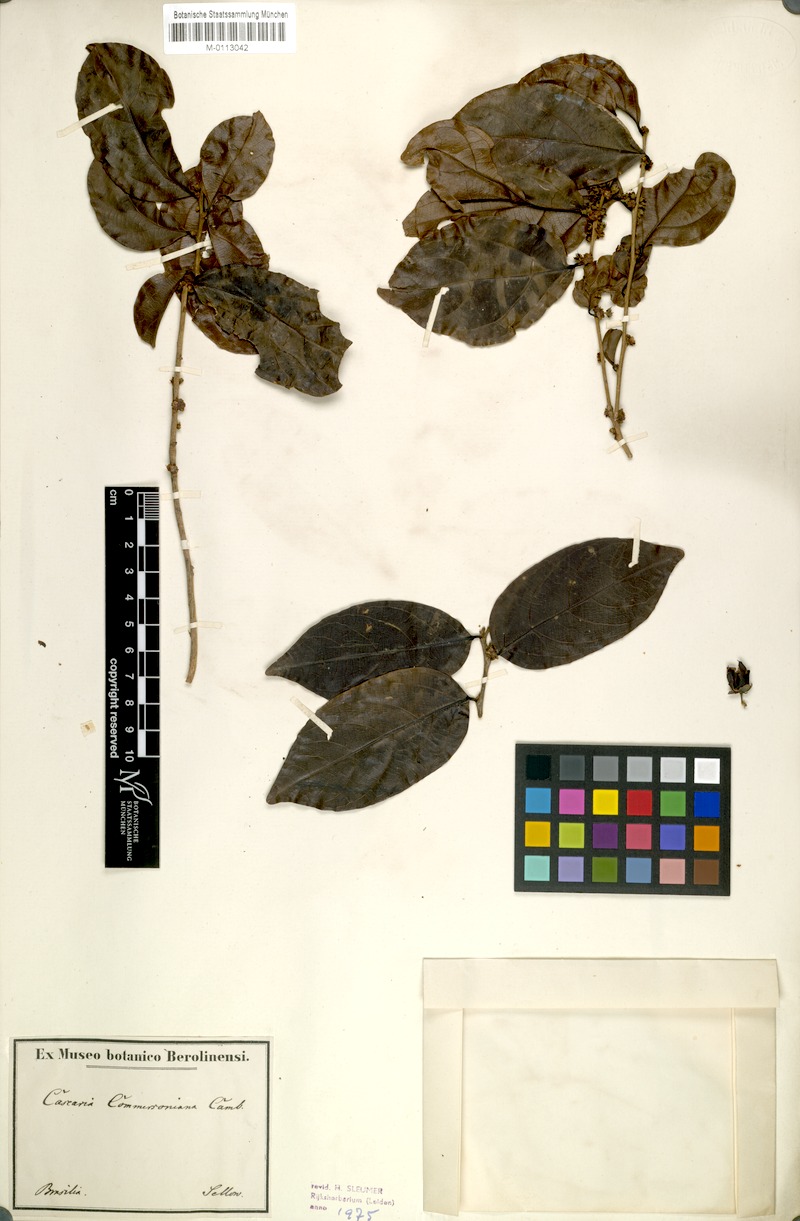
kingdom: Plantae
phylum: Tracheophyta
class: Magnoliopsida
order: Malpighiales
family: Salicaceae
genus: Piparea
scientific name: Piparea dentata
